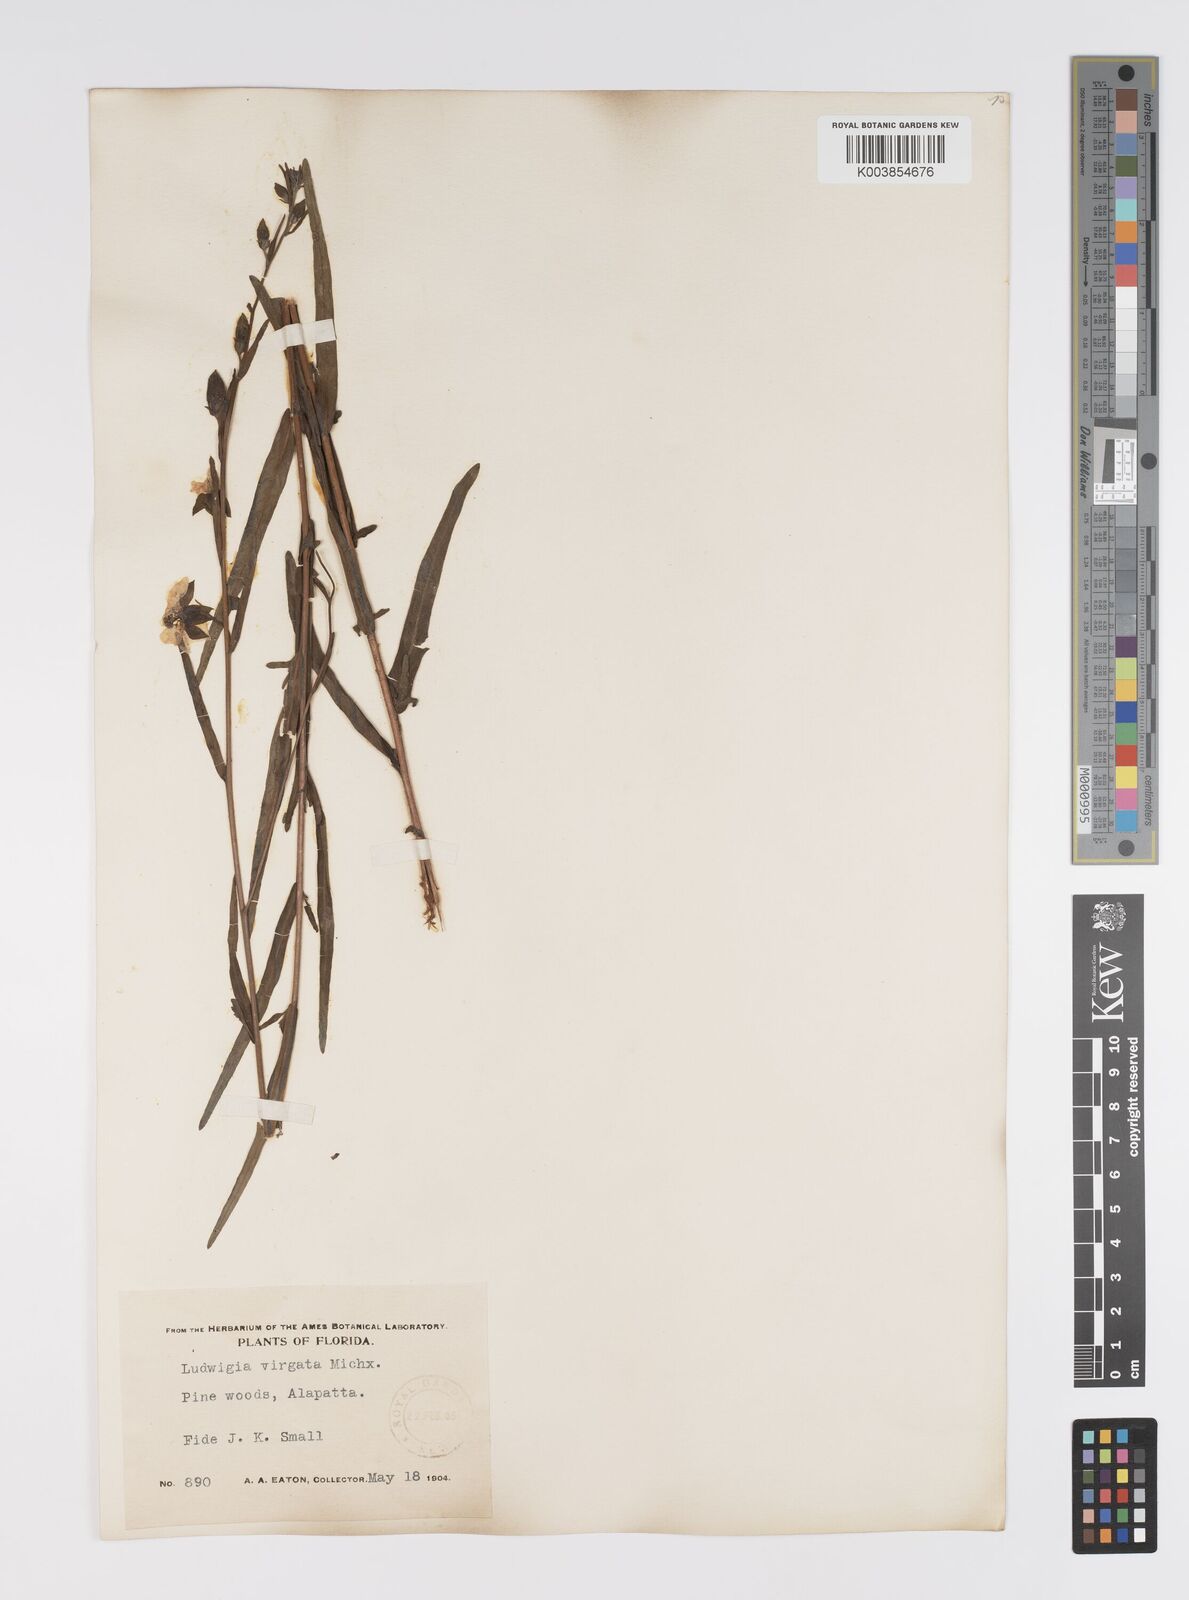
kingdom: Plantae
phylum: Tracheophyta
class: Magnoliopsida
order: Myrtales
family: Onagraceae
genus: Ludwigia
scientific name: Ludwigia virgata
